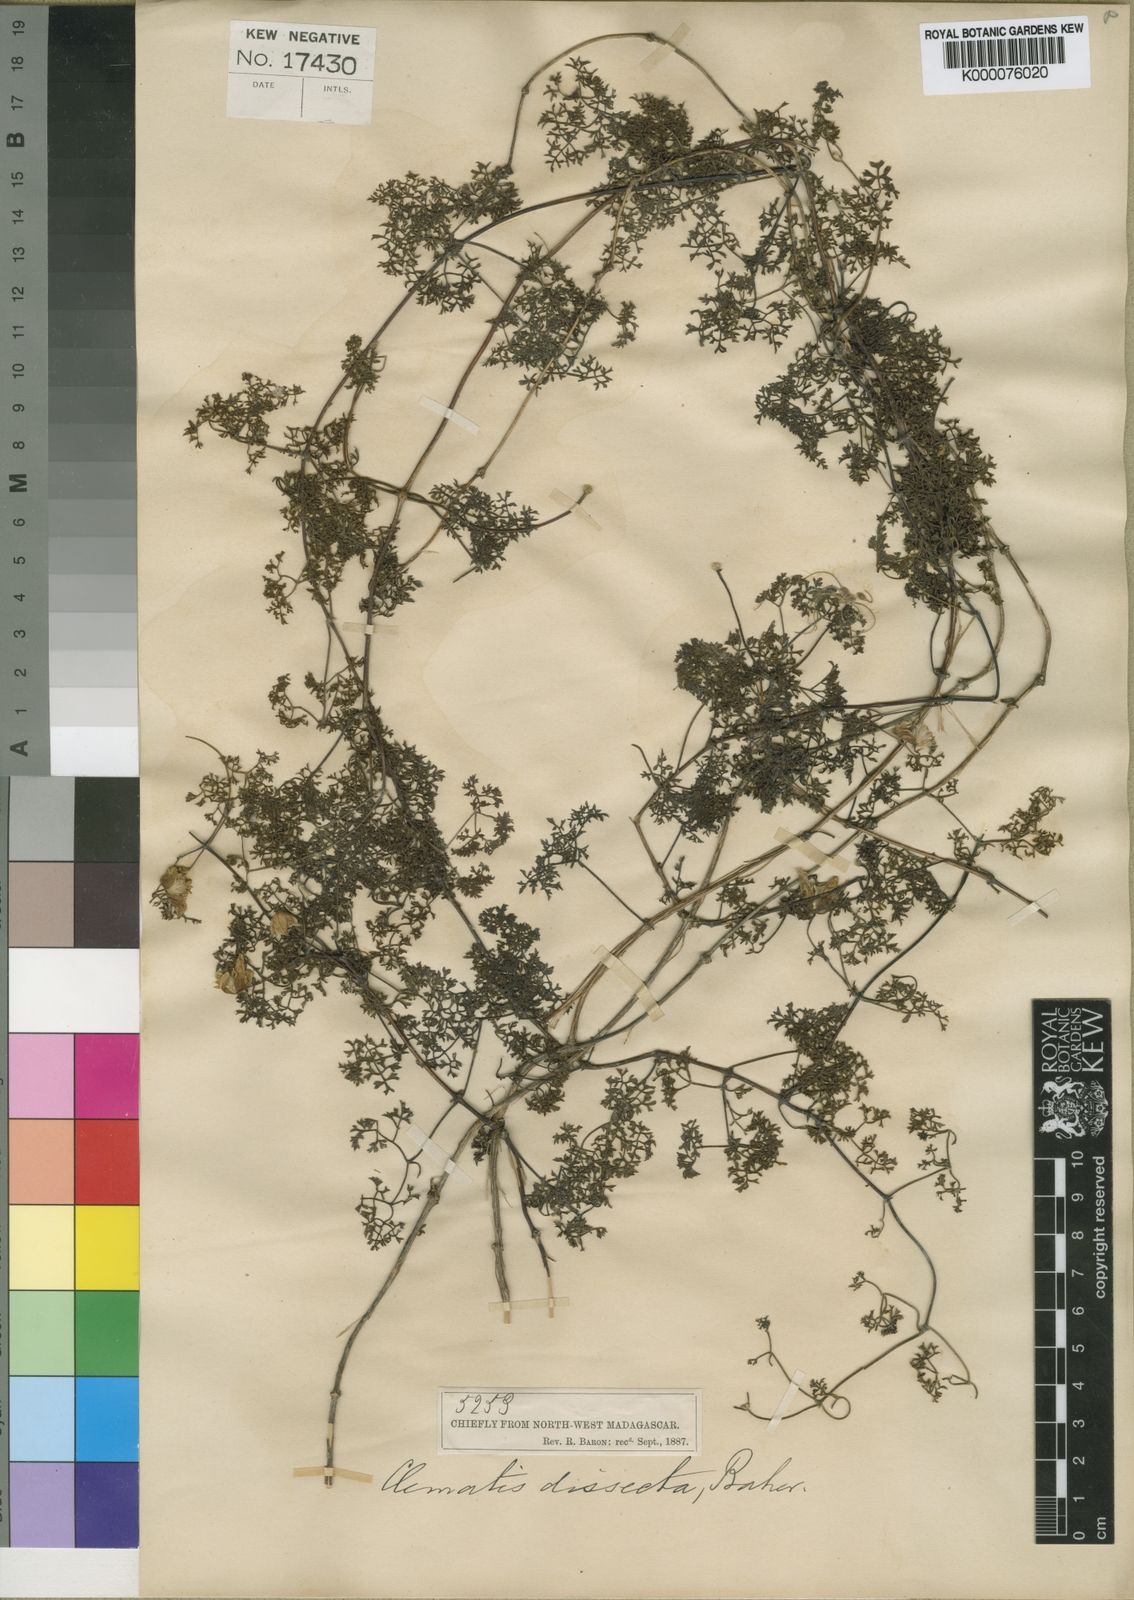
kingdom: Plantae
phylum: Tracheophyta
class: Magnoliopsida
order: Ranunculales
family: Ranunculaceae
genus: Clematis
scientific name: Clematis oligophylla
